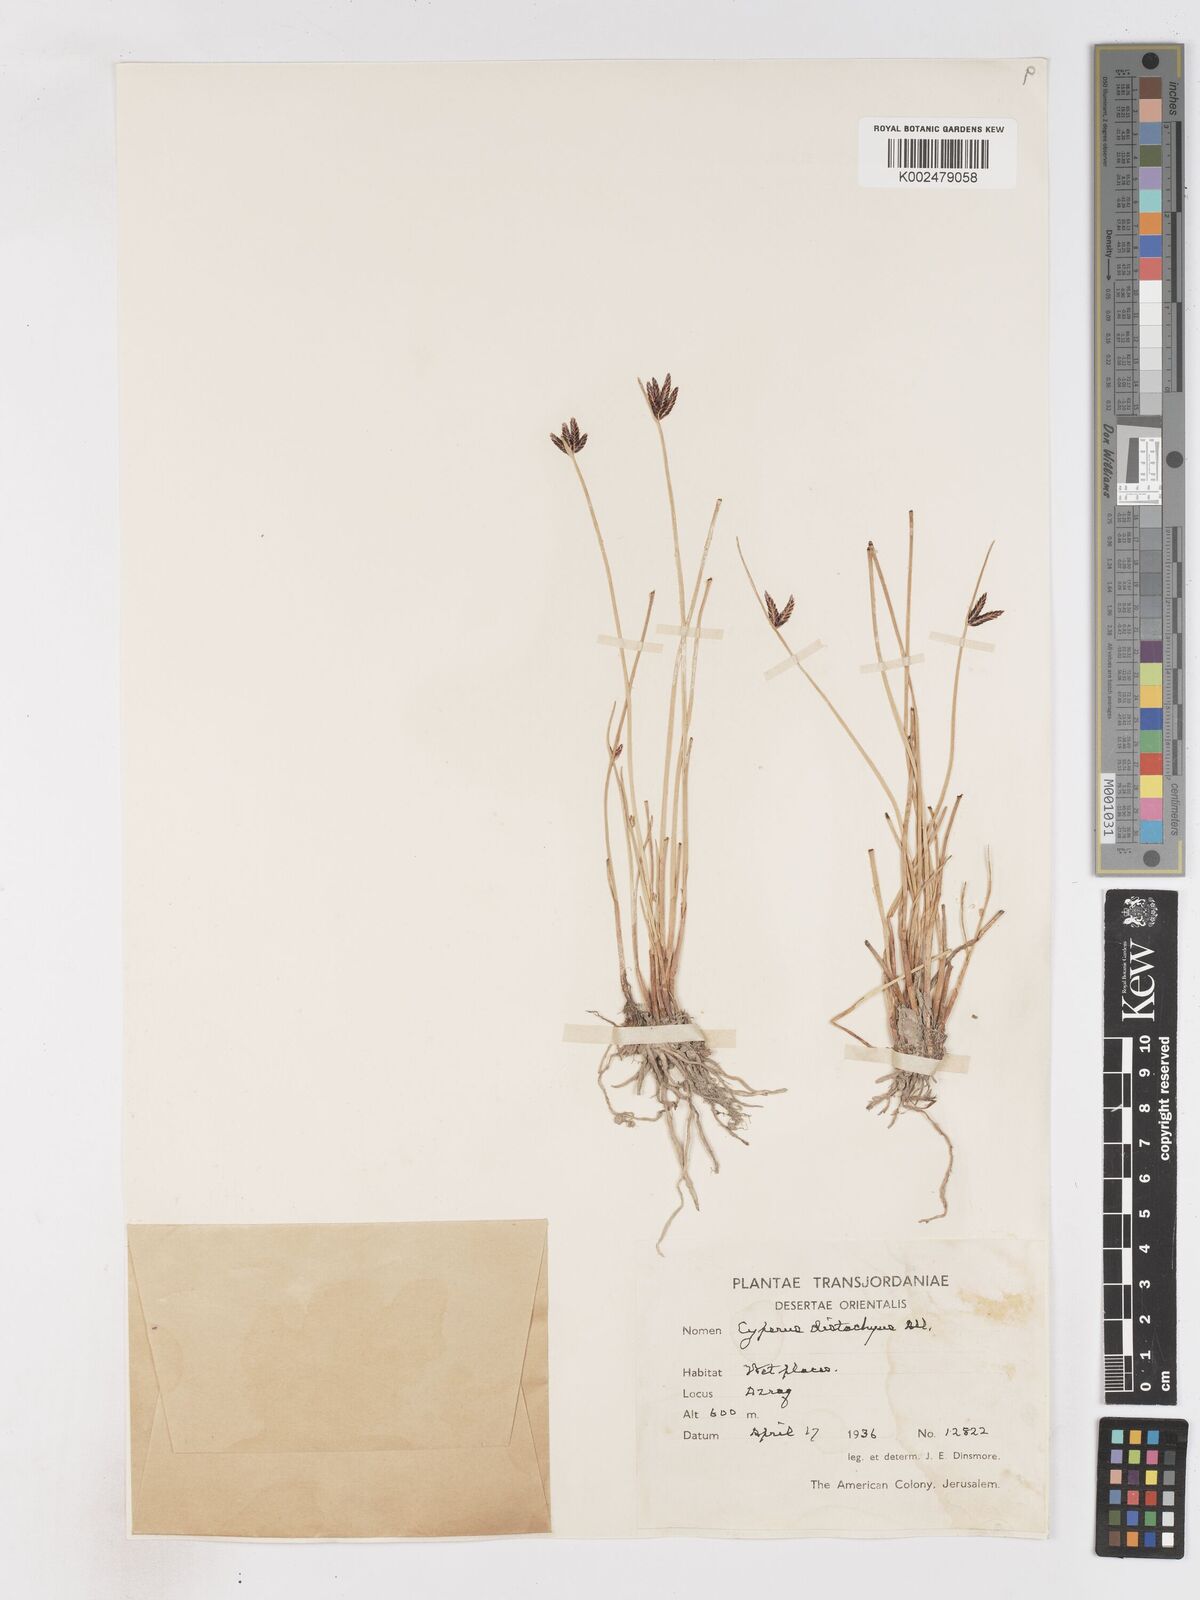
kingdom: Plantae
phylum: Tracheophyta
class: Liliopsida
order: Poales
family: Cyperaceae
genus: Cyperus
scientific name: Cyperus laevigatus
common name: Smooth flat sedge
